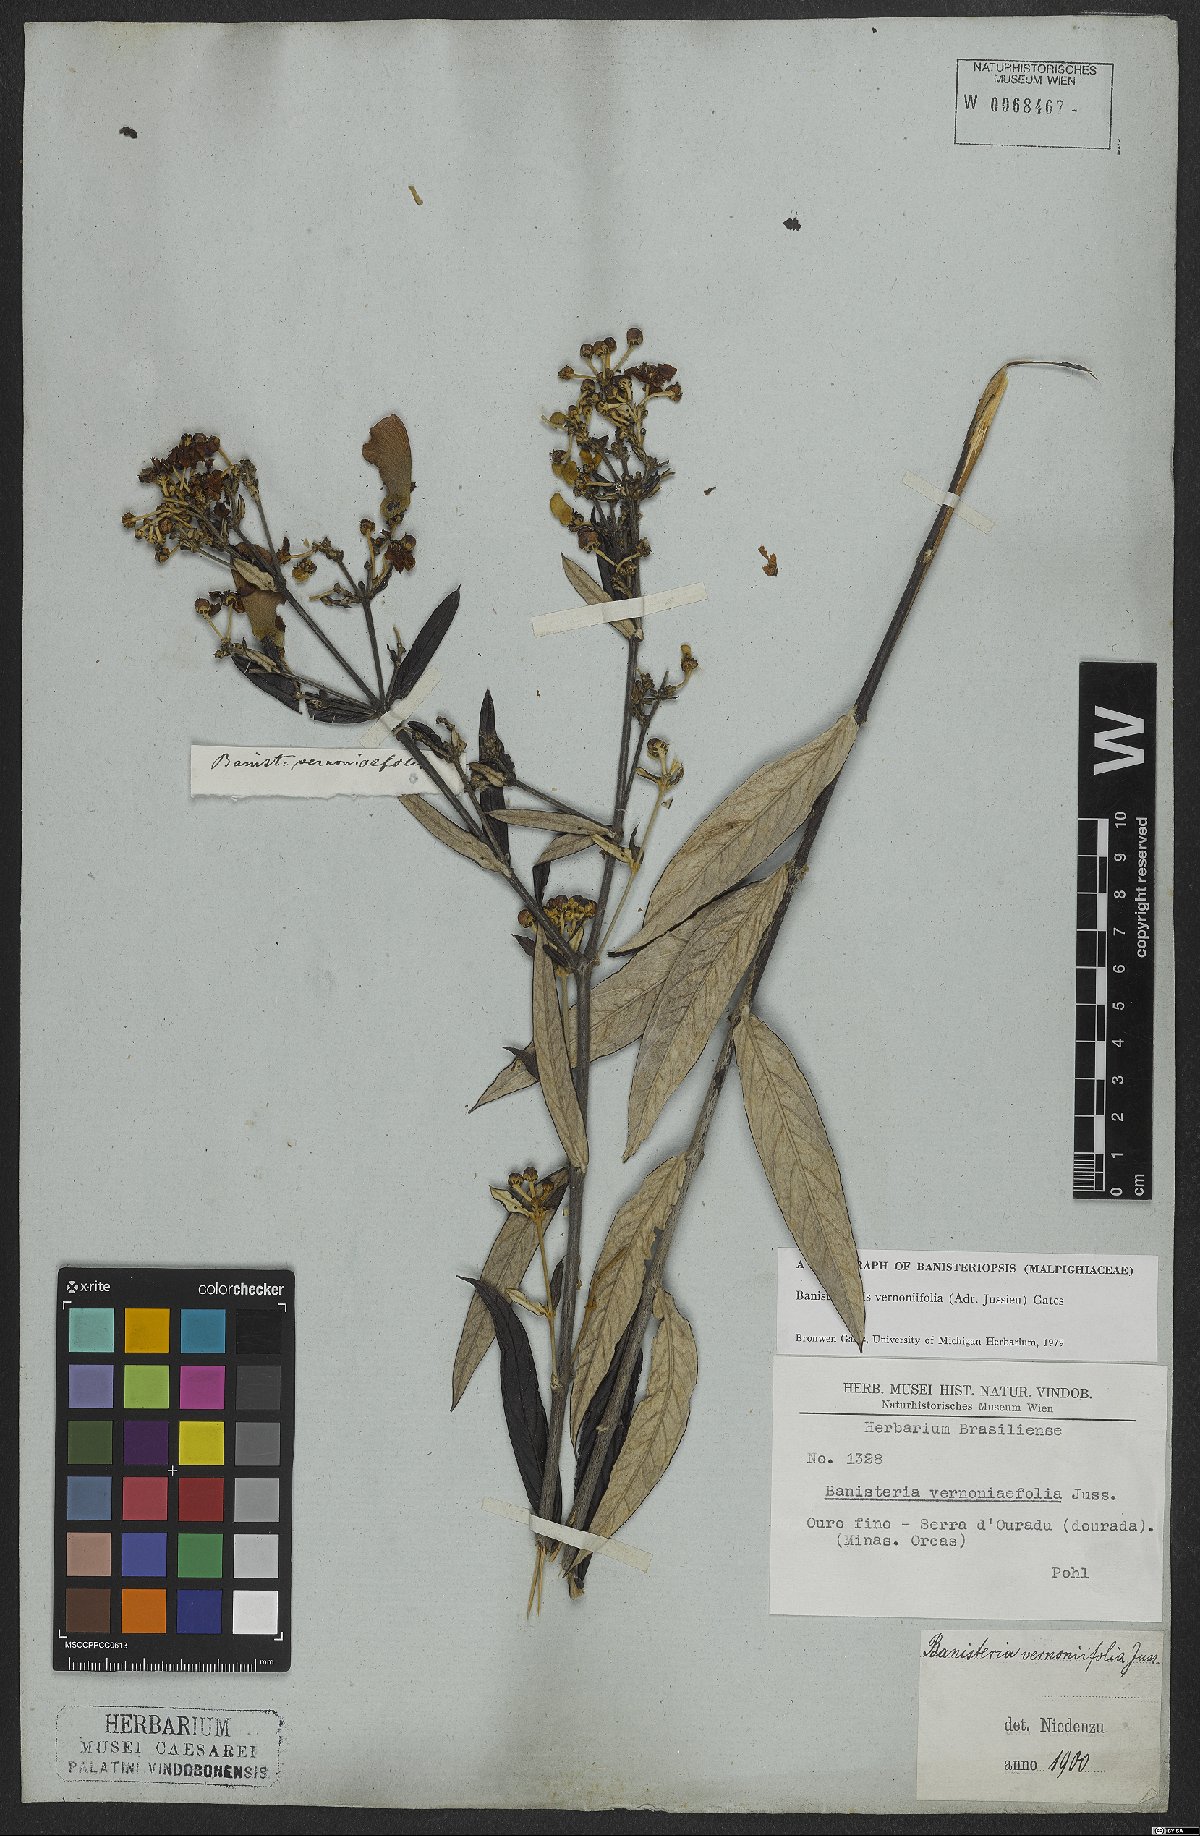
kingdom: Plantae
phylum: Tracheophyta
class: Magnoliopsida
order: Malpighiales
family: Malpighiaceae
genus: Banisteriopsis
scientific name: Banisteriopsis vernoniifolia
